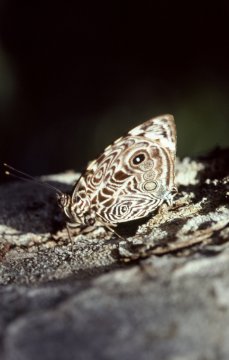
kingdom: Animalia
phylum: Arthropoda
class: Insecta
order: Lepidoptera
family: Nymphalidae
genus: Smyrna
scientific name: Smyrna blomfildia
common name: Blomfild's Beauty
